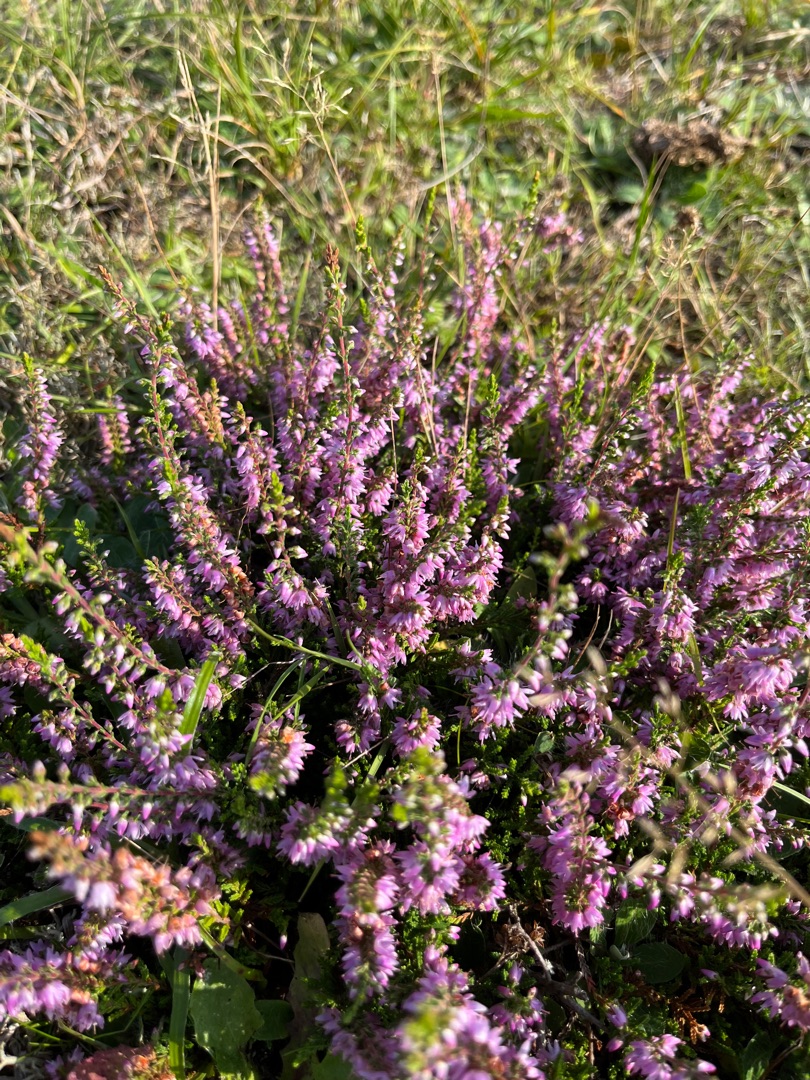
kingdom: Plantae
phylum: Tracheophyta
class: Magnoliopsida
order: Ericales
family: Ericaceae
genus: Calluna
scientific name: Calluna vulgaris
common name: Hedelyng
